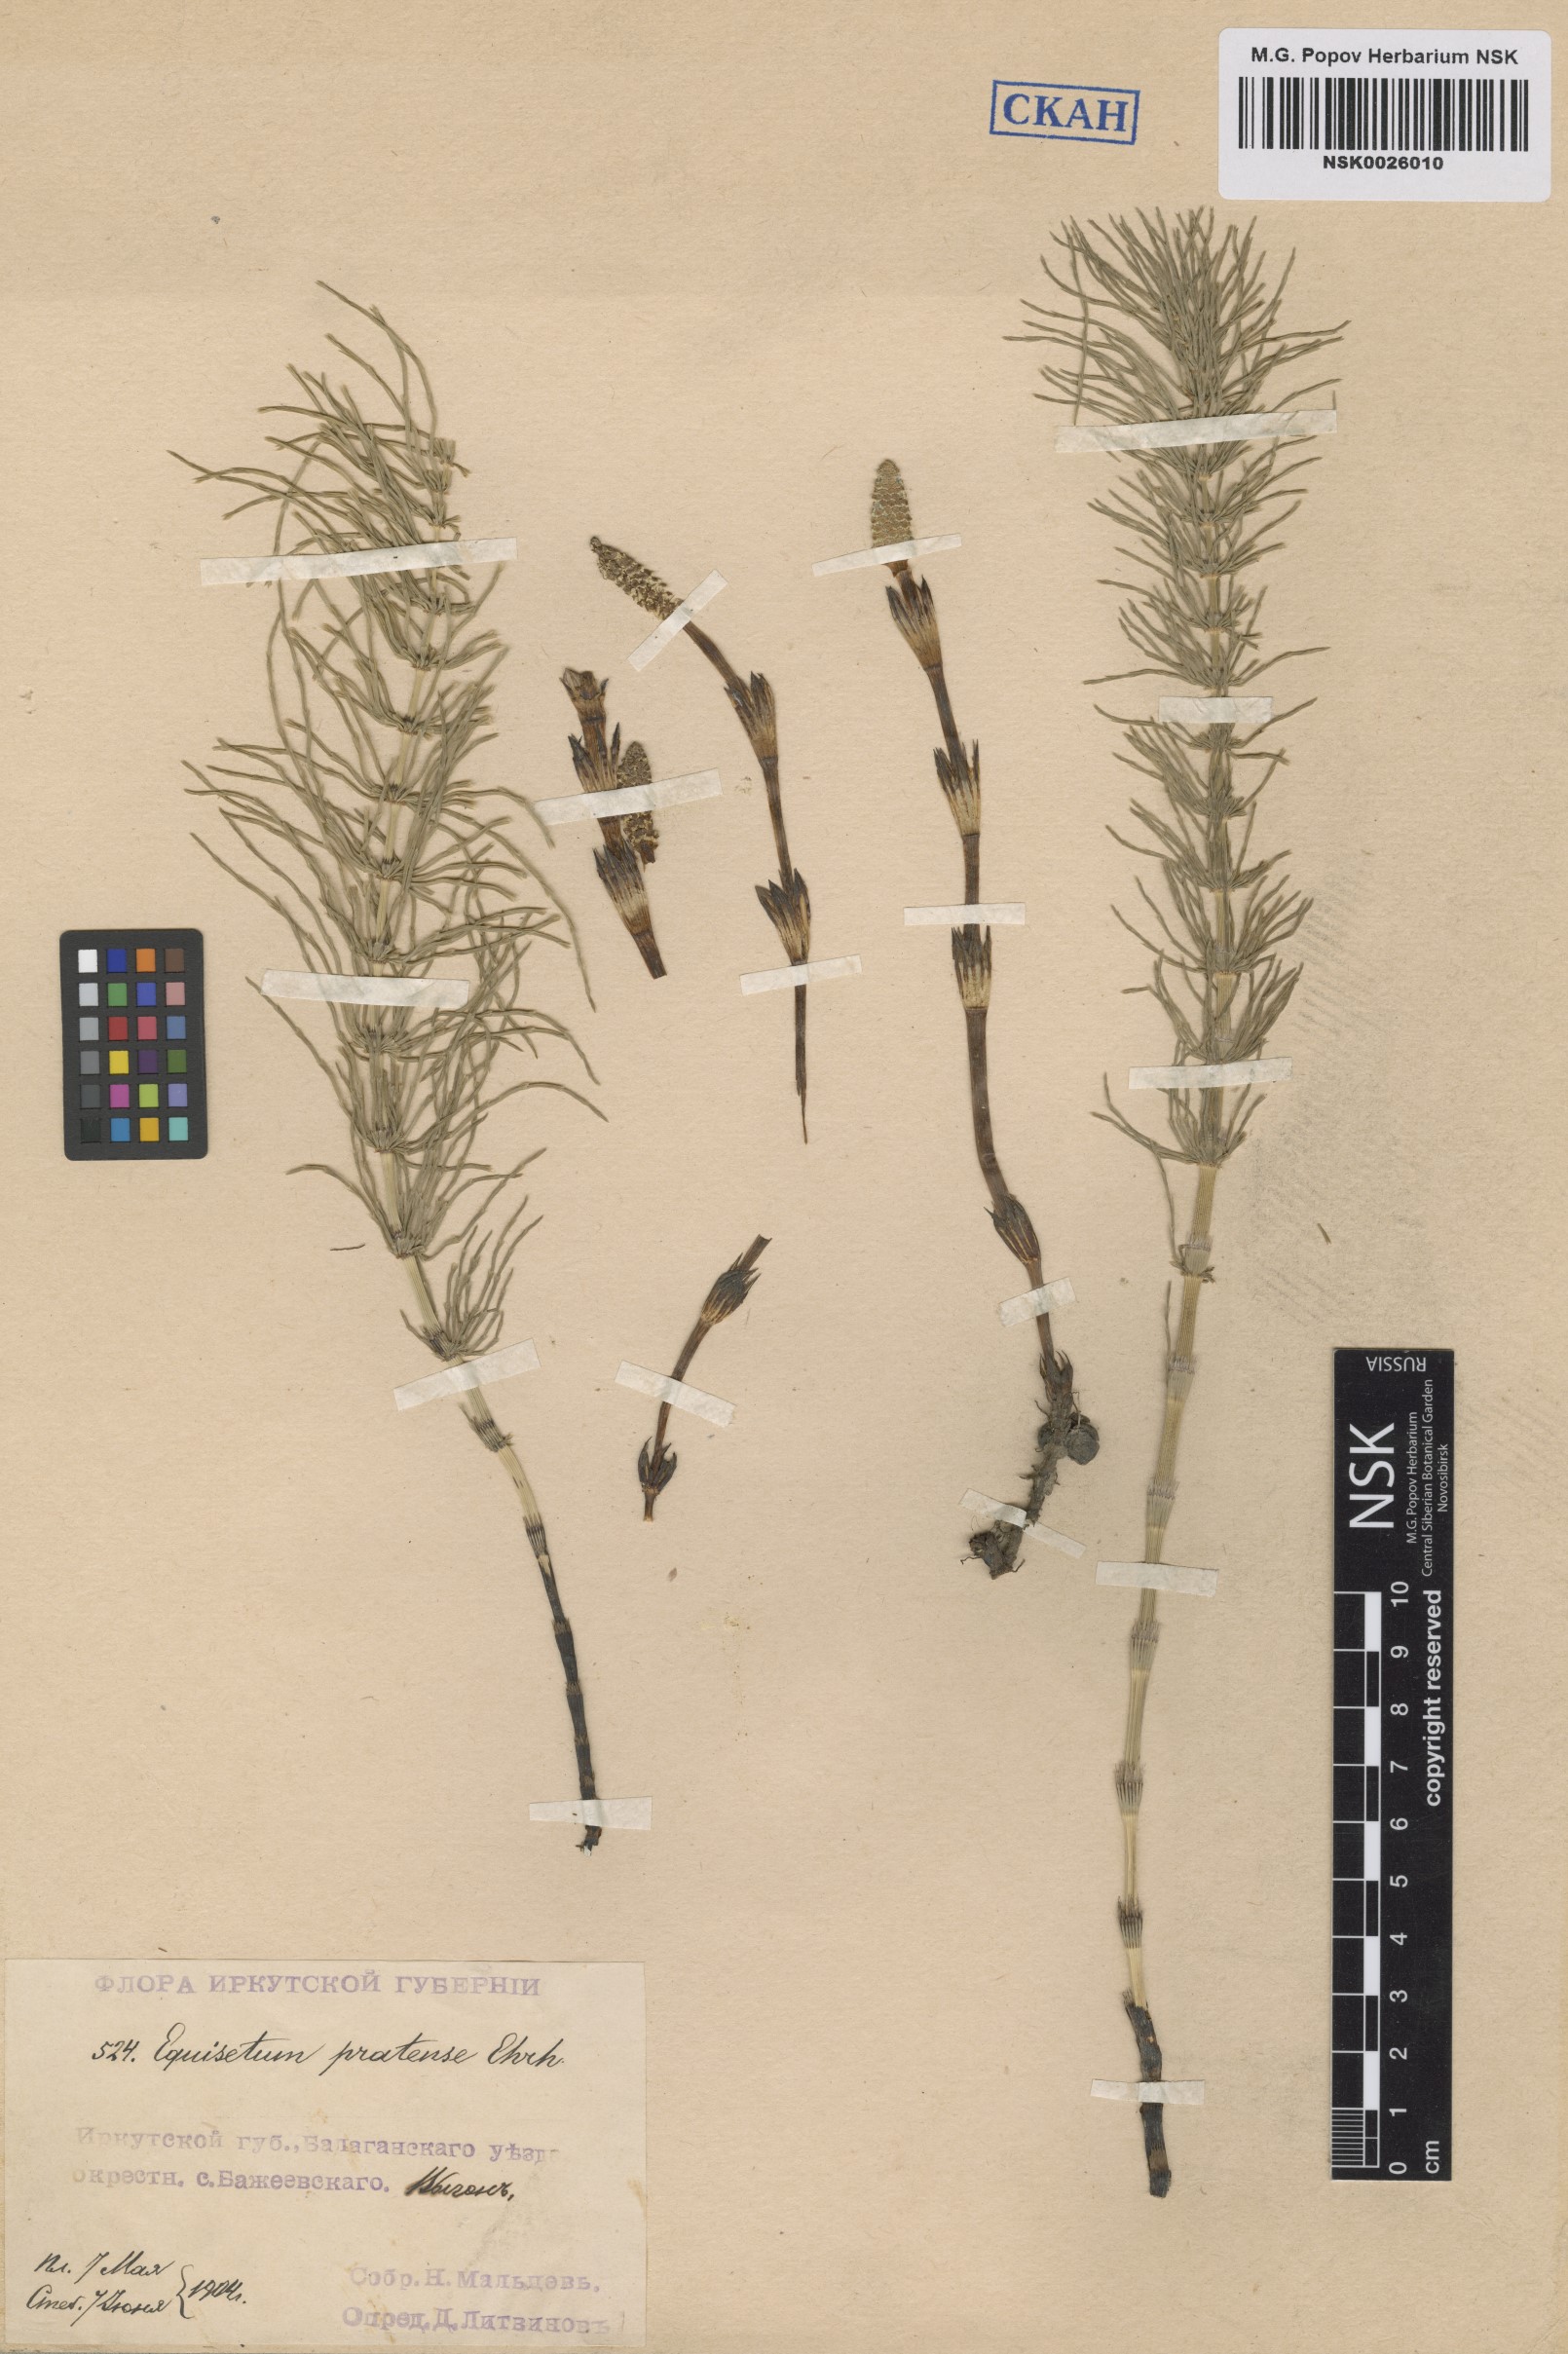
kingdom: Plantae
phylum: Tracheophyta
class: Polypodiopsida
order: Equisetales
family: Equisetaceae
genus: Equisetum
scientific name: Equisetum pratense
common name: Meadow horsetail
